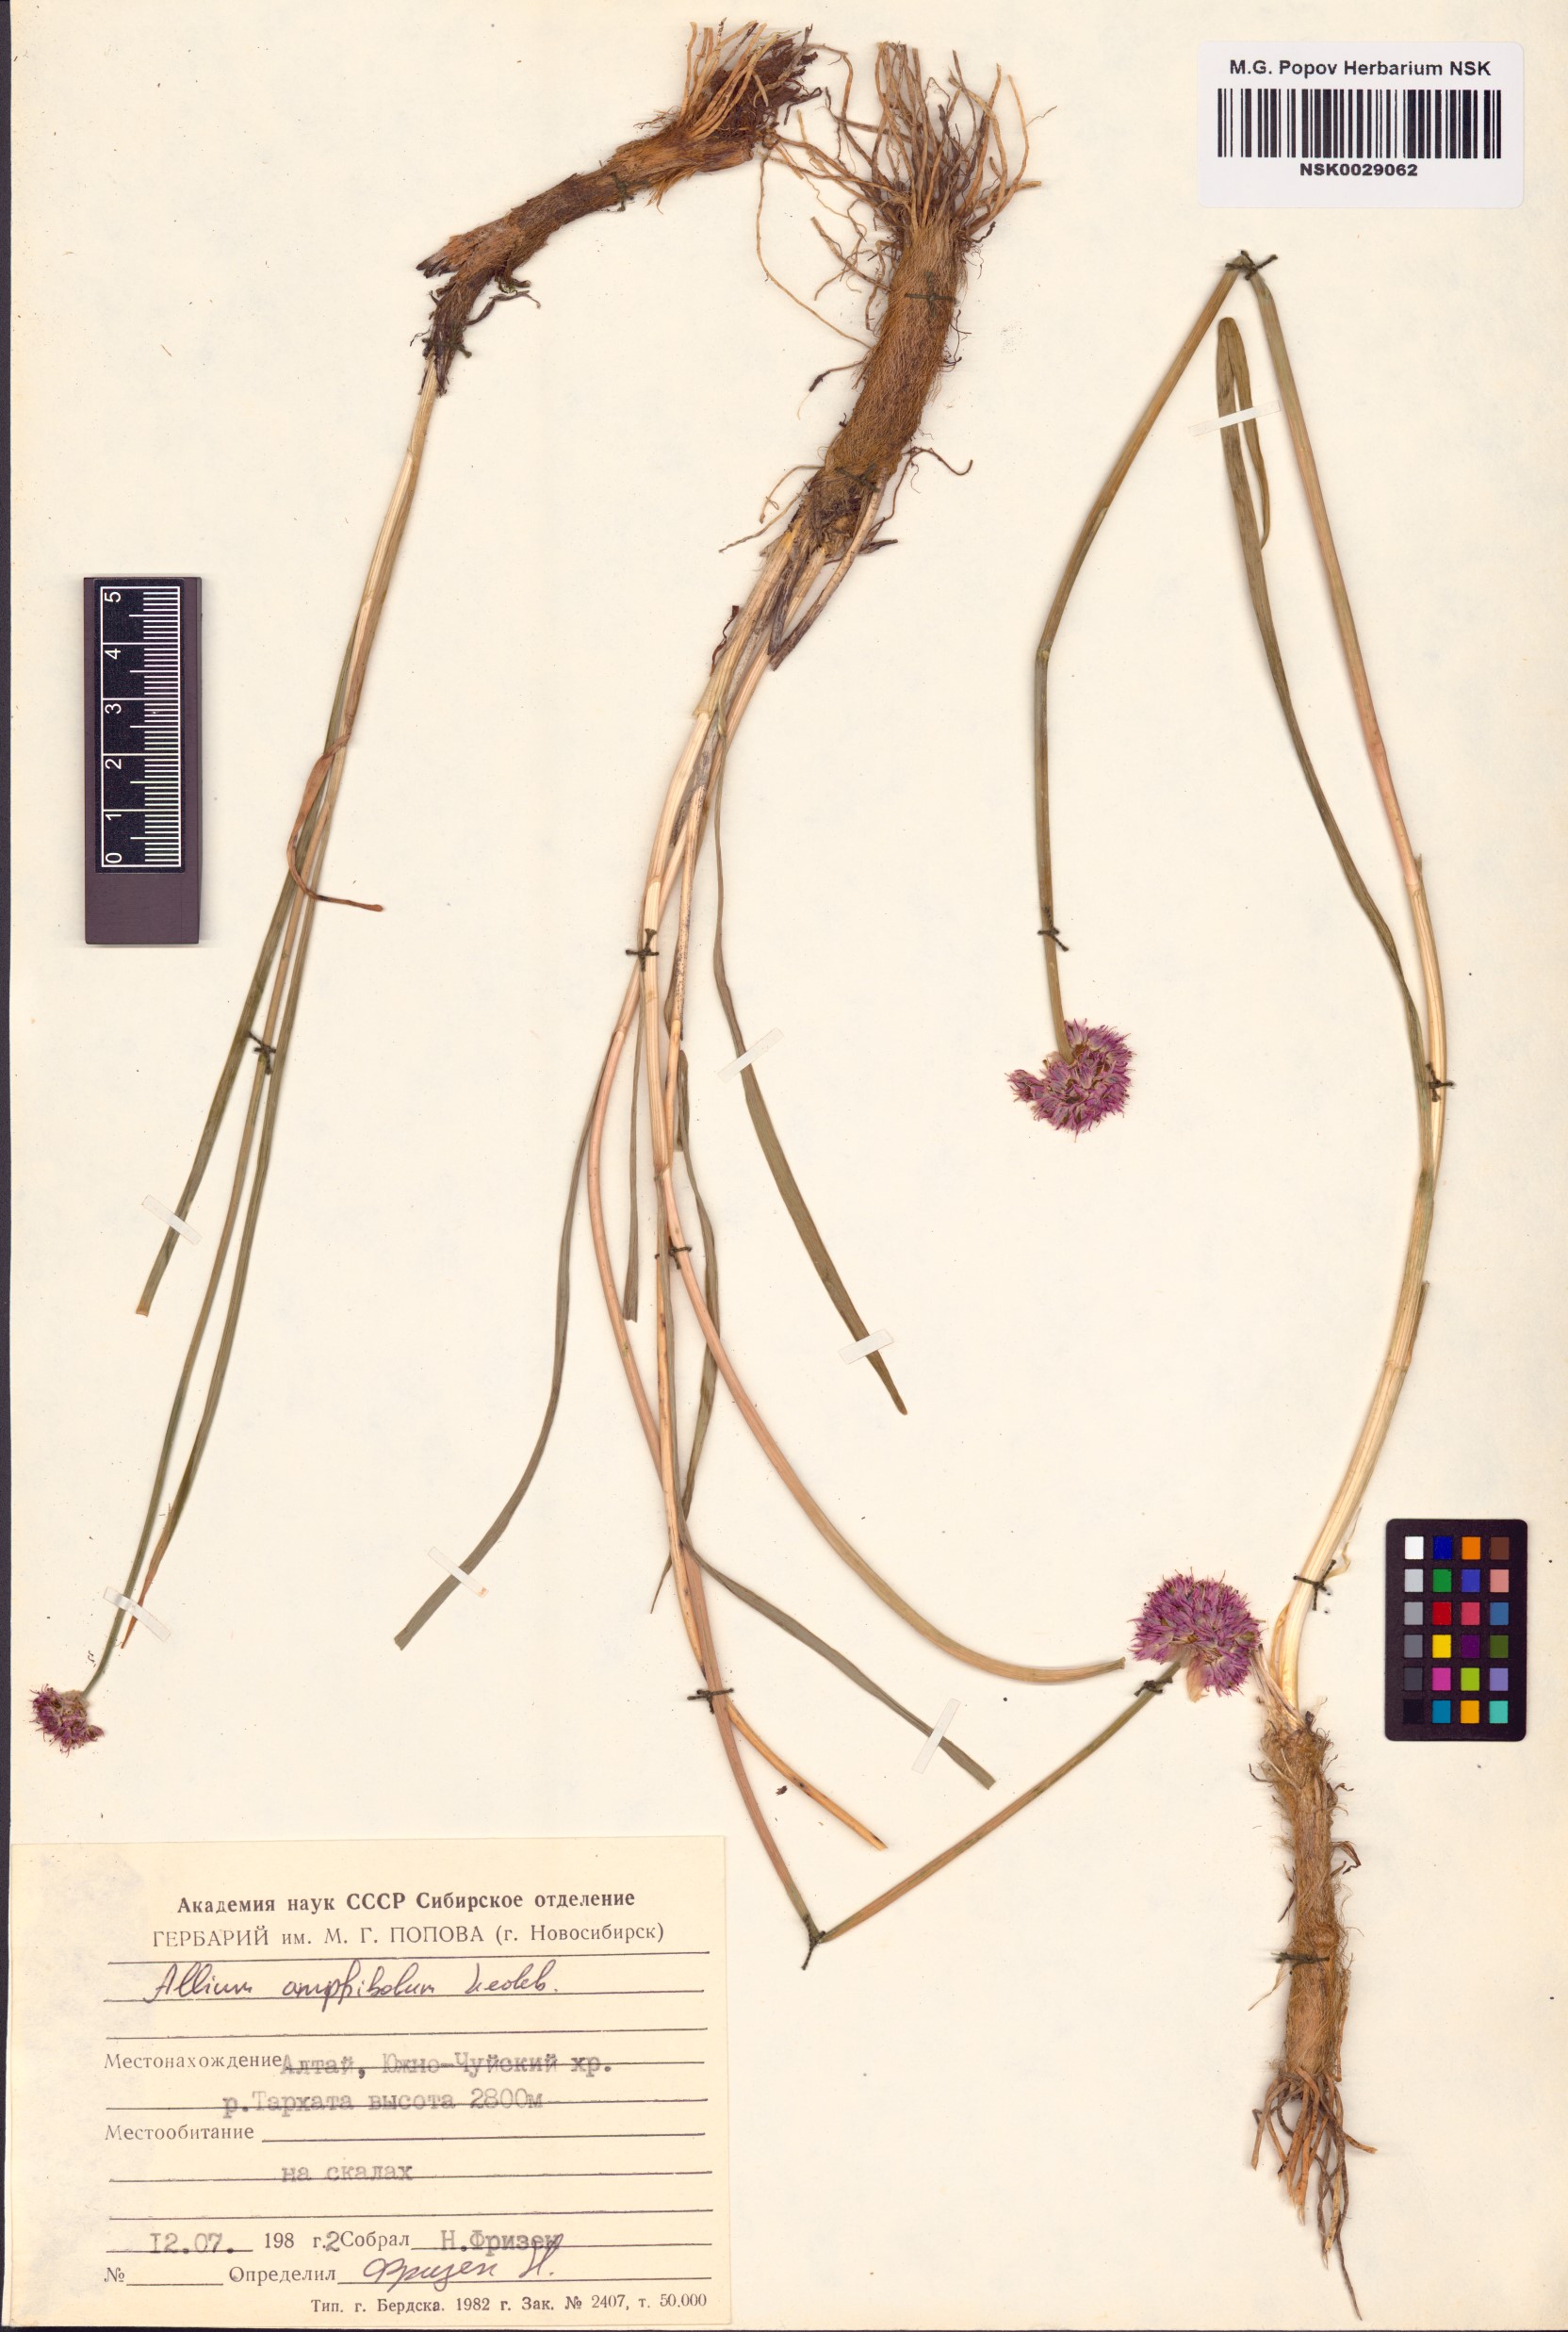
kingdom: Plantae
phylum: Tracheophyta
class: Liliopsida
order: Asparagales
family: Amaryllidaceae
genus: Allium
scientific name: Allium amphibolum
